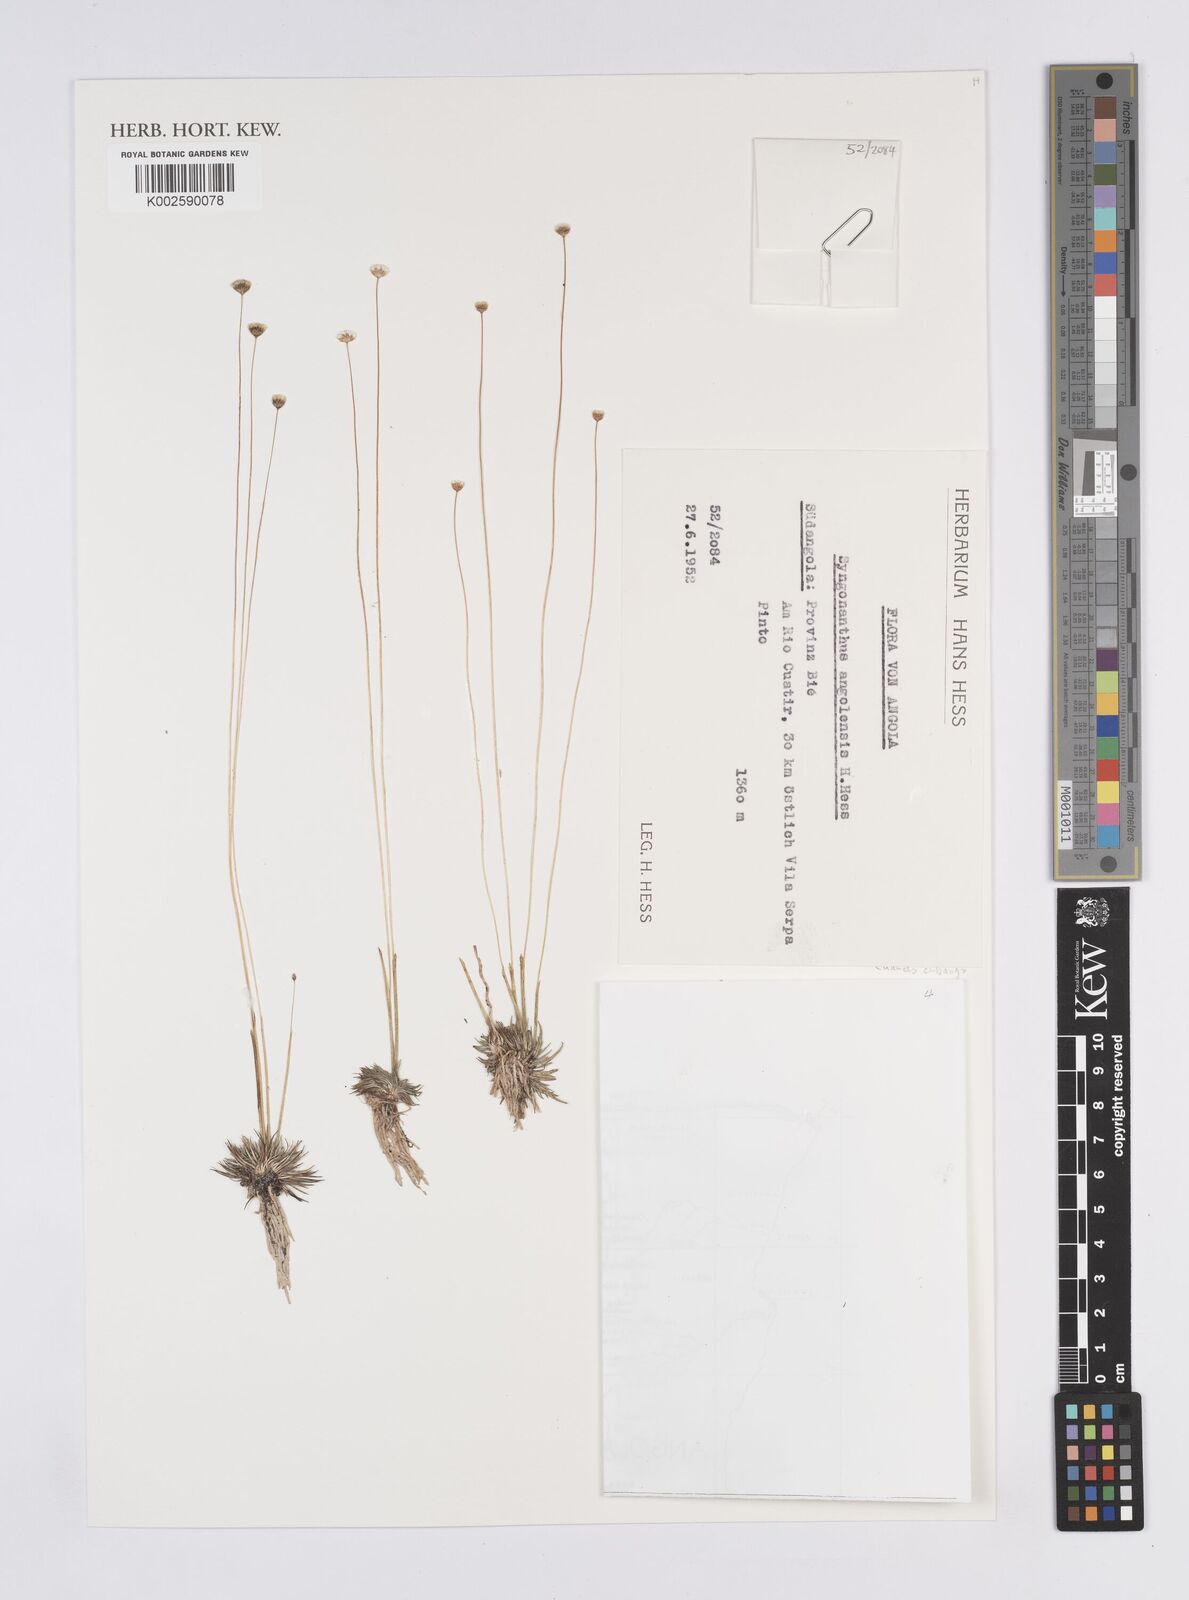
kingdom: Plantae
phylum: Tracheophyta
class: Liliopsida
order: Poales
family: Eriocaulaceae
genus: Syngonanthus
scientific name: Syngonanthus angolensis
